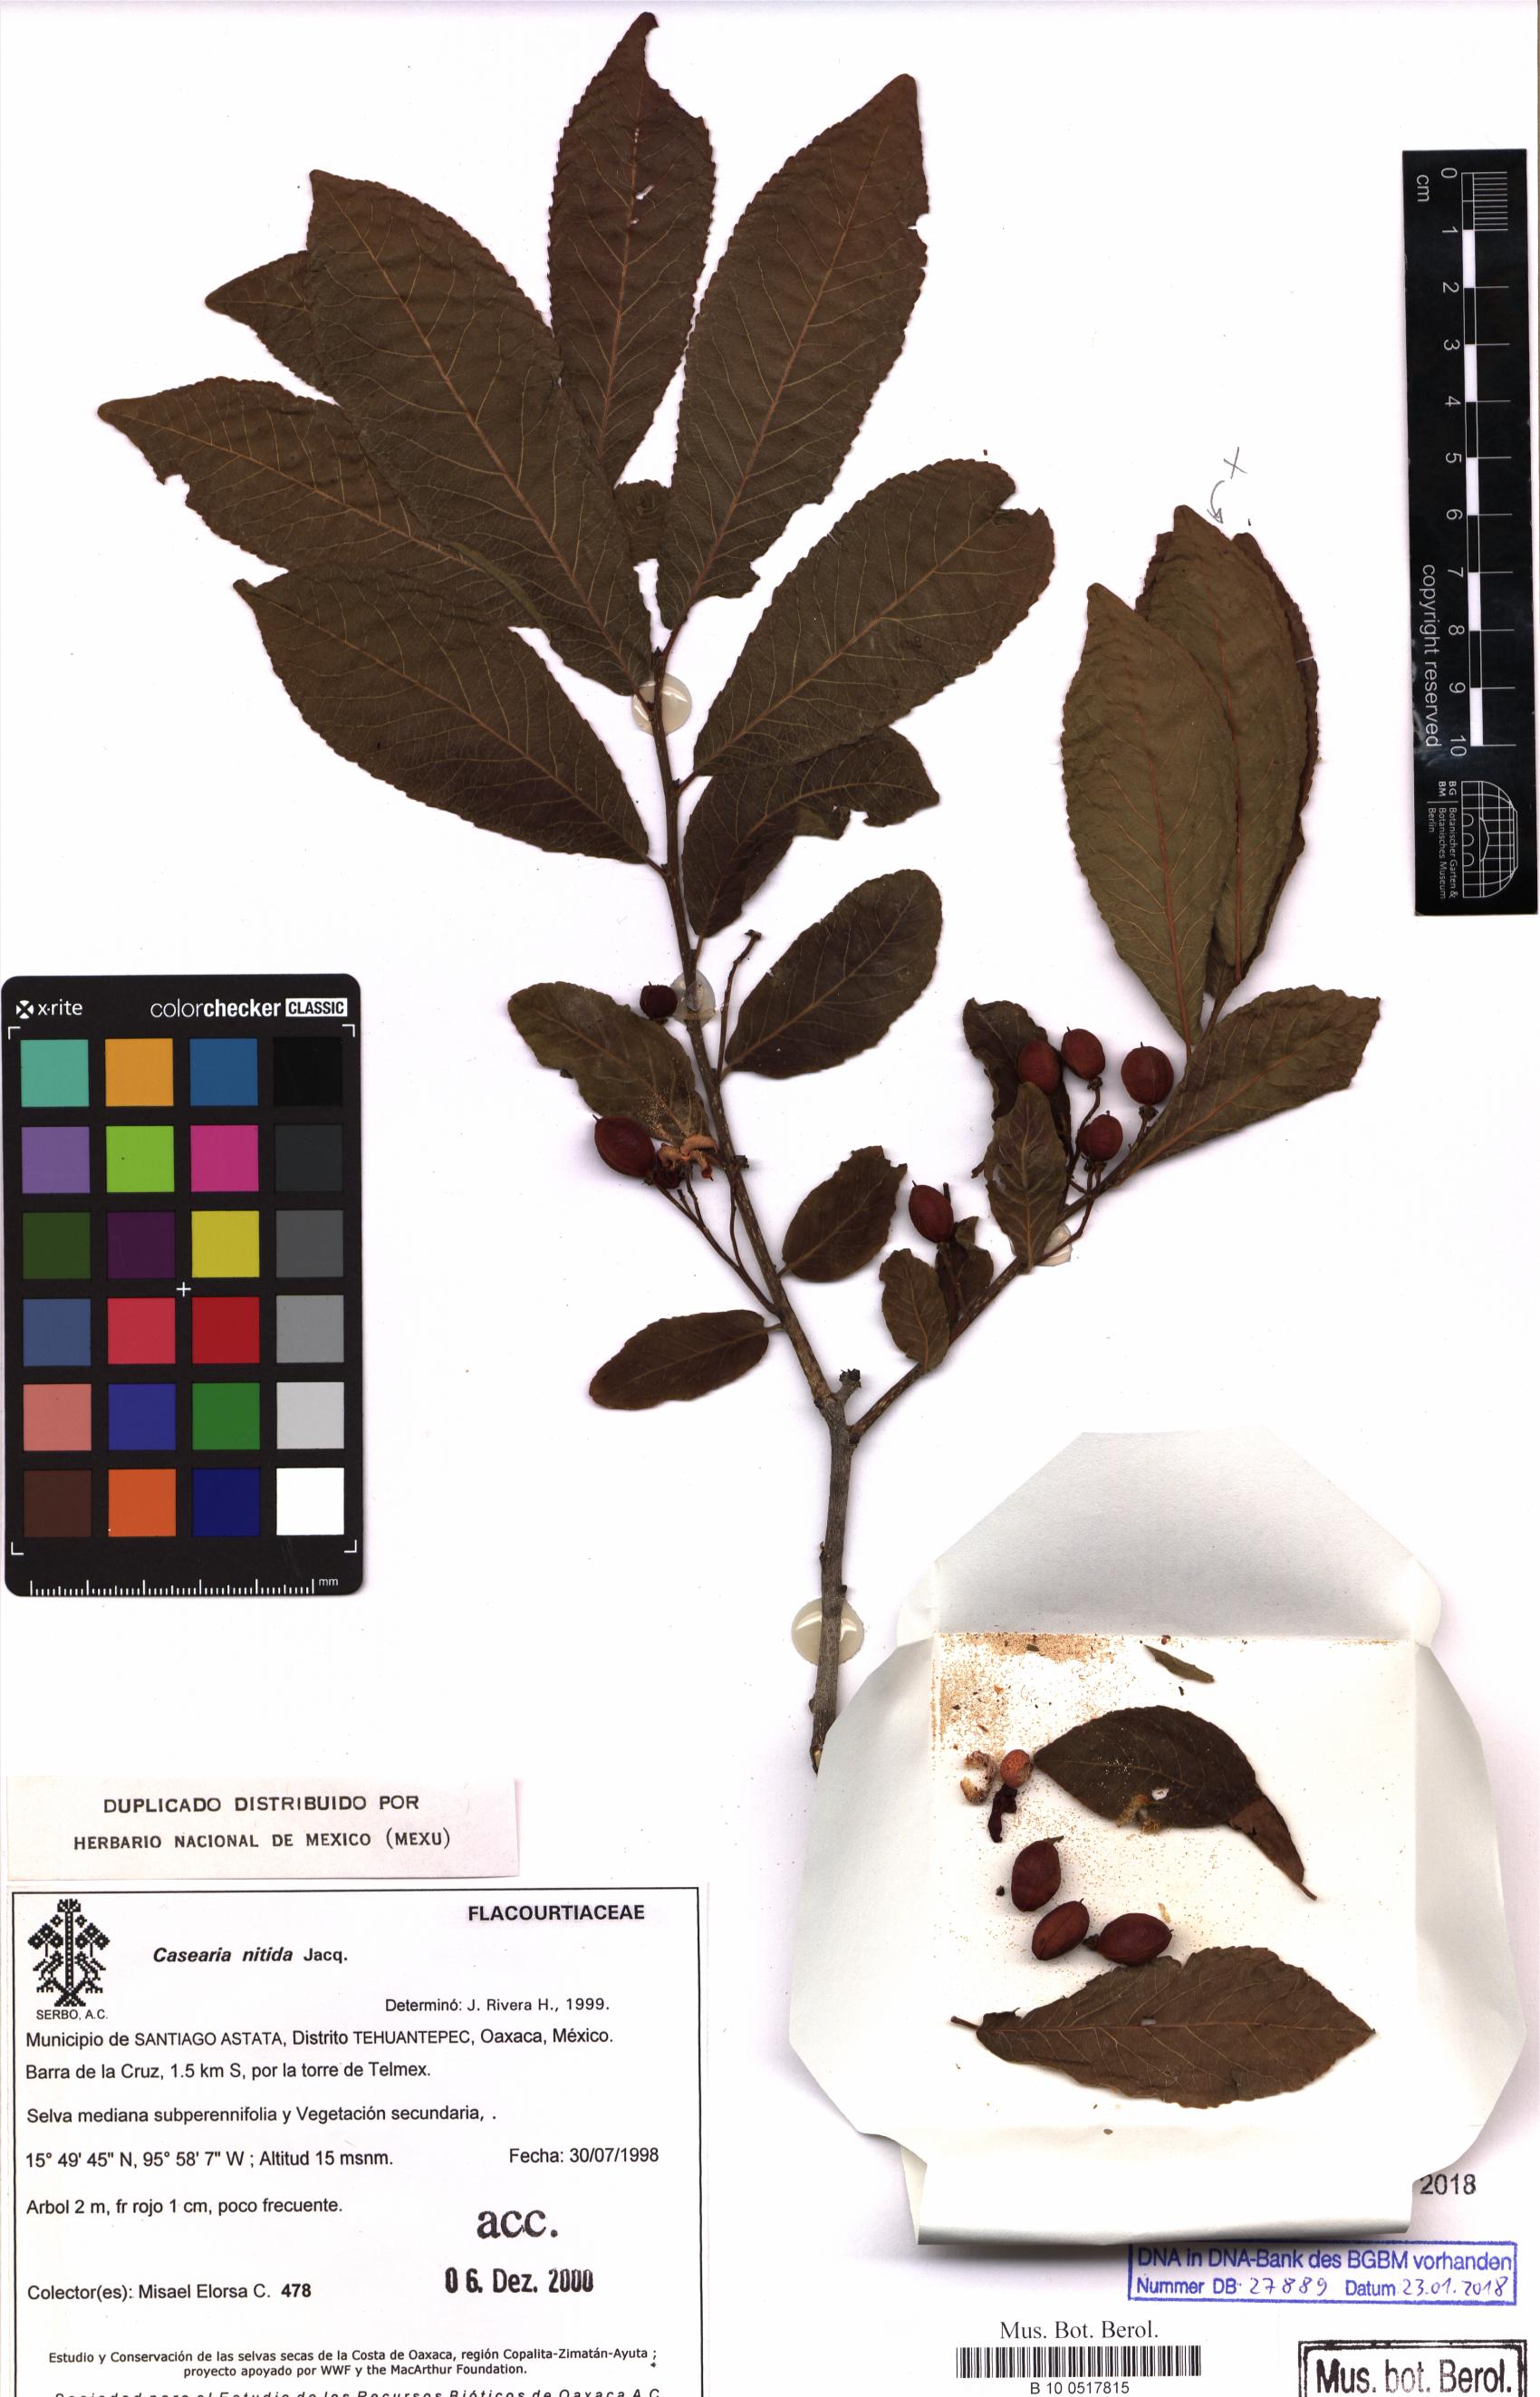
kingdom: Plantae
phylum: Tracheophyta
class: Magnoliopsida
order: Malpighiales
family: Salicaceae
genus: Casearia
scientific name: Casearia corymbosa
